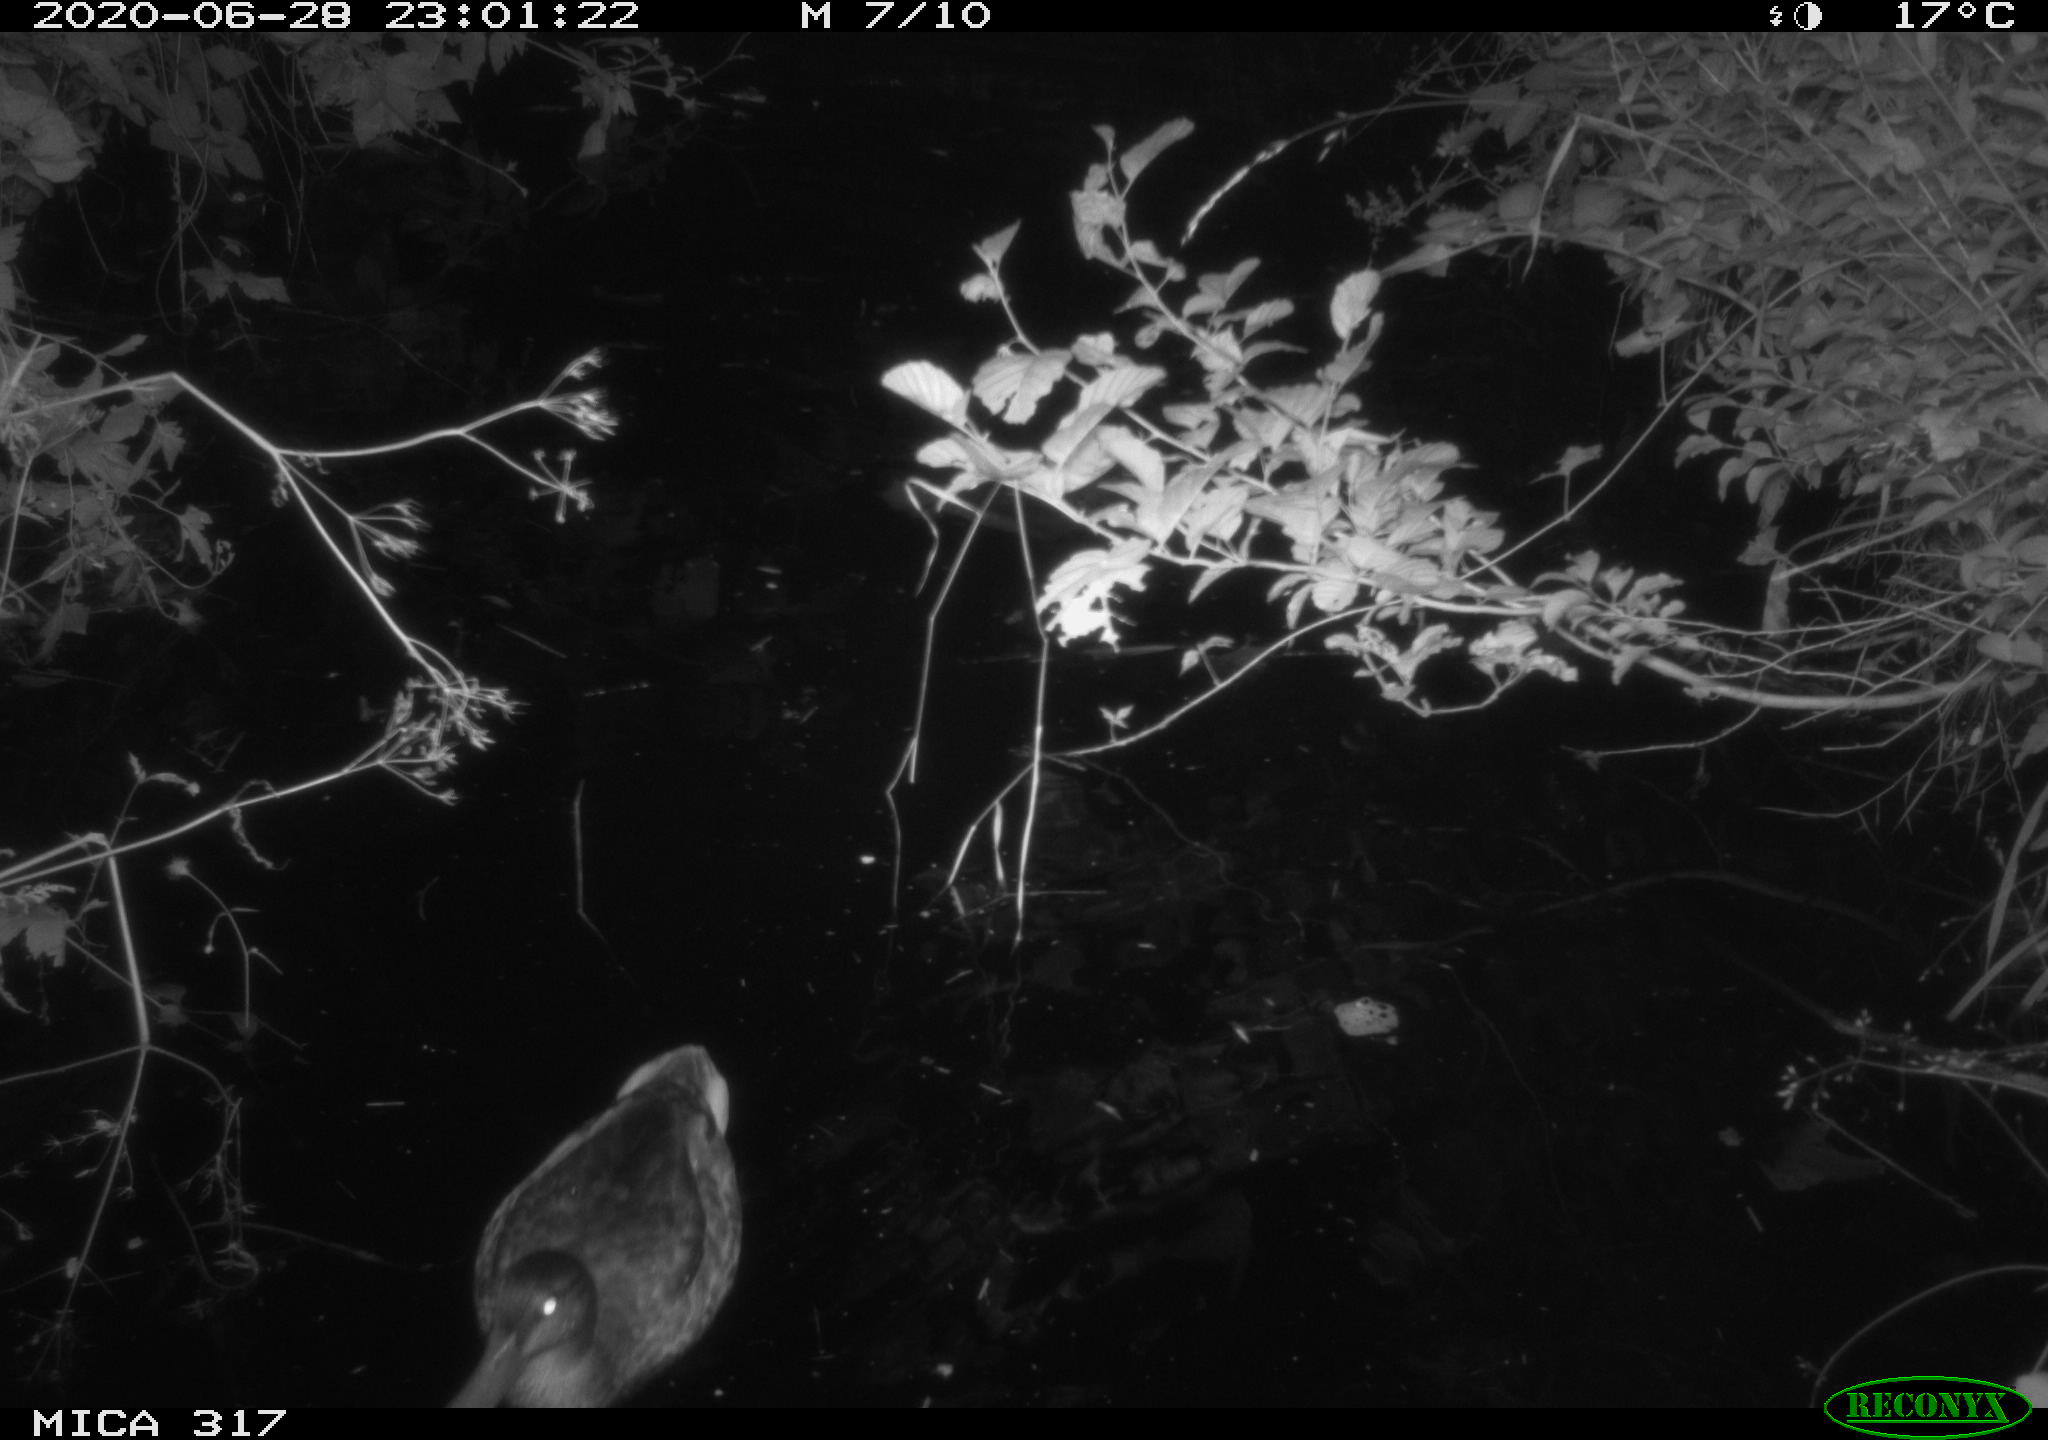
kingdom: Animalia
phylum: Chordata
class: Aves
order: Anseriformes
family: Anatidae
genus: Anas
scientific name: Anas platyrhynchos
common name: Mallard
